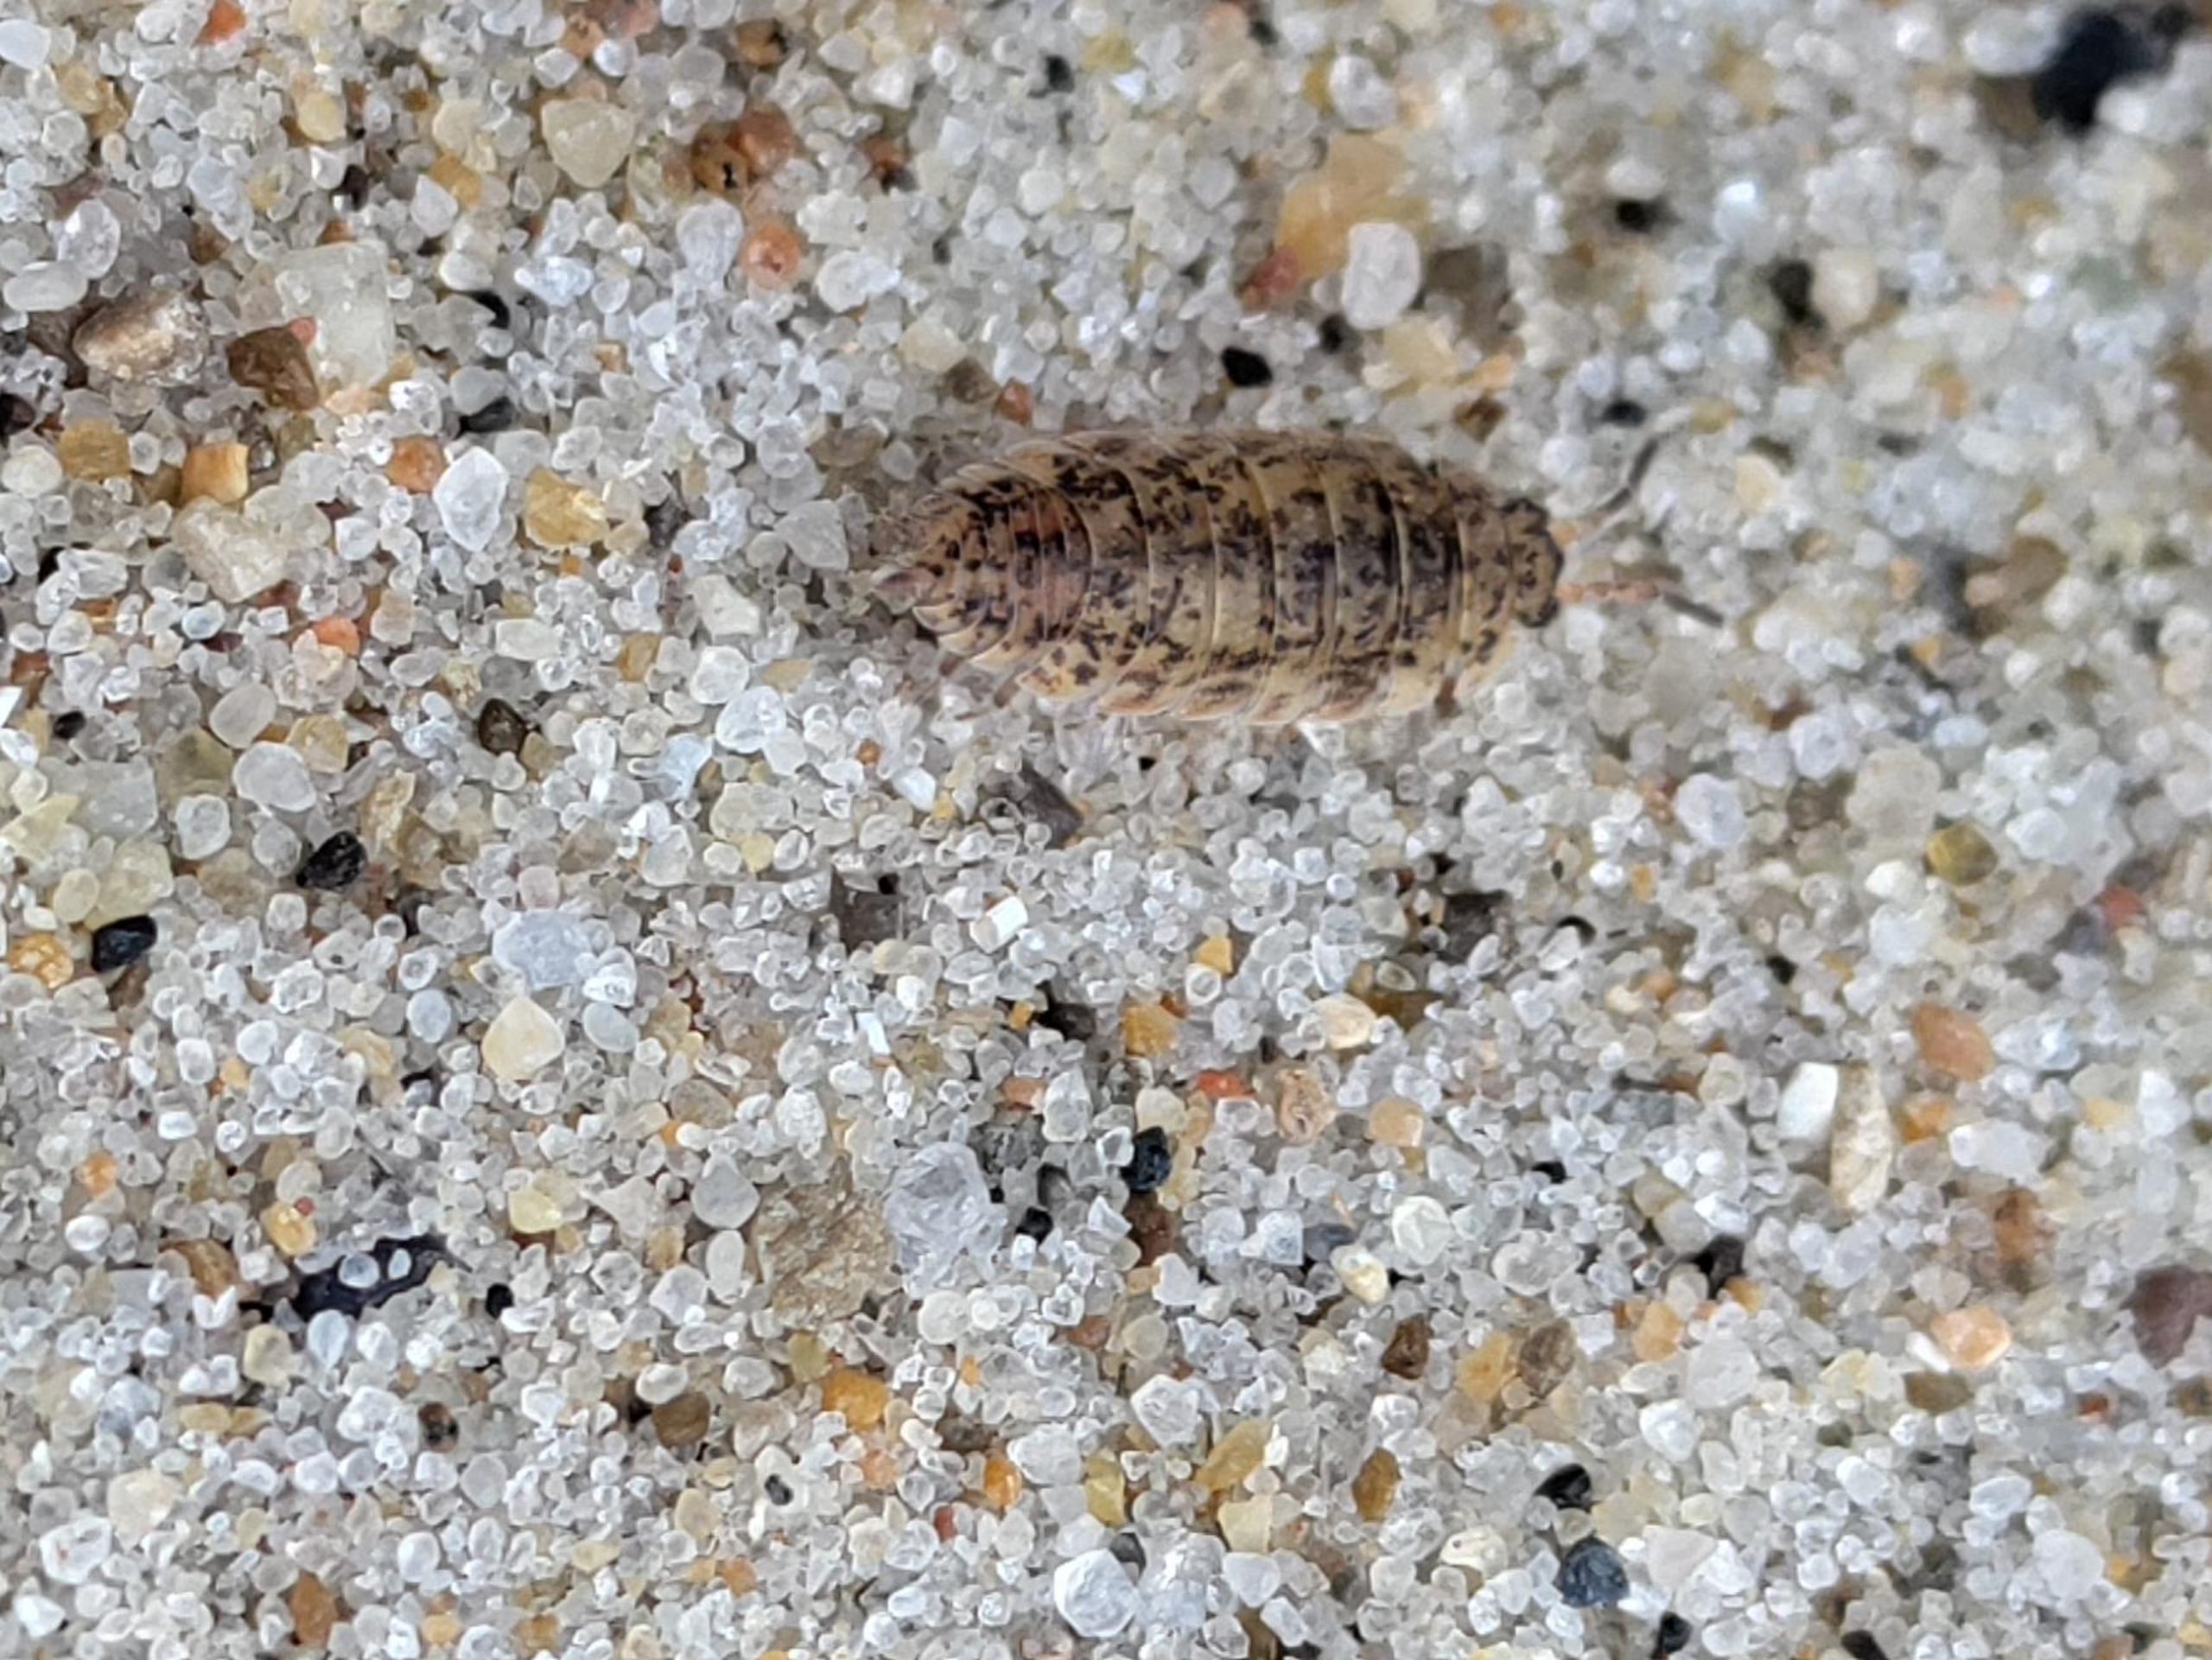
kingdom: Animalia
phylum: Arthropoda
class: Malacostraca
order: Isopoda
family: Porcellionidae
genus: Porcellio
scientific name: Porcellio scaber
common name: Grå bænkebider
